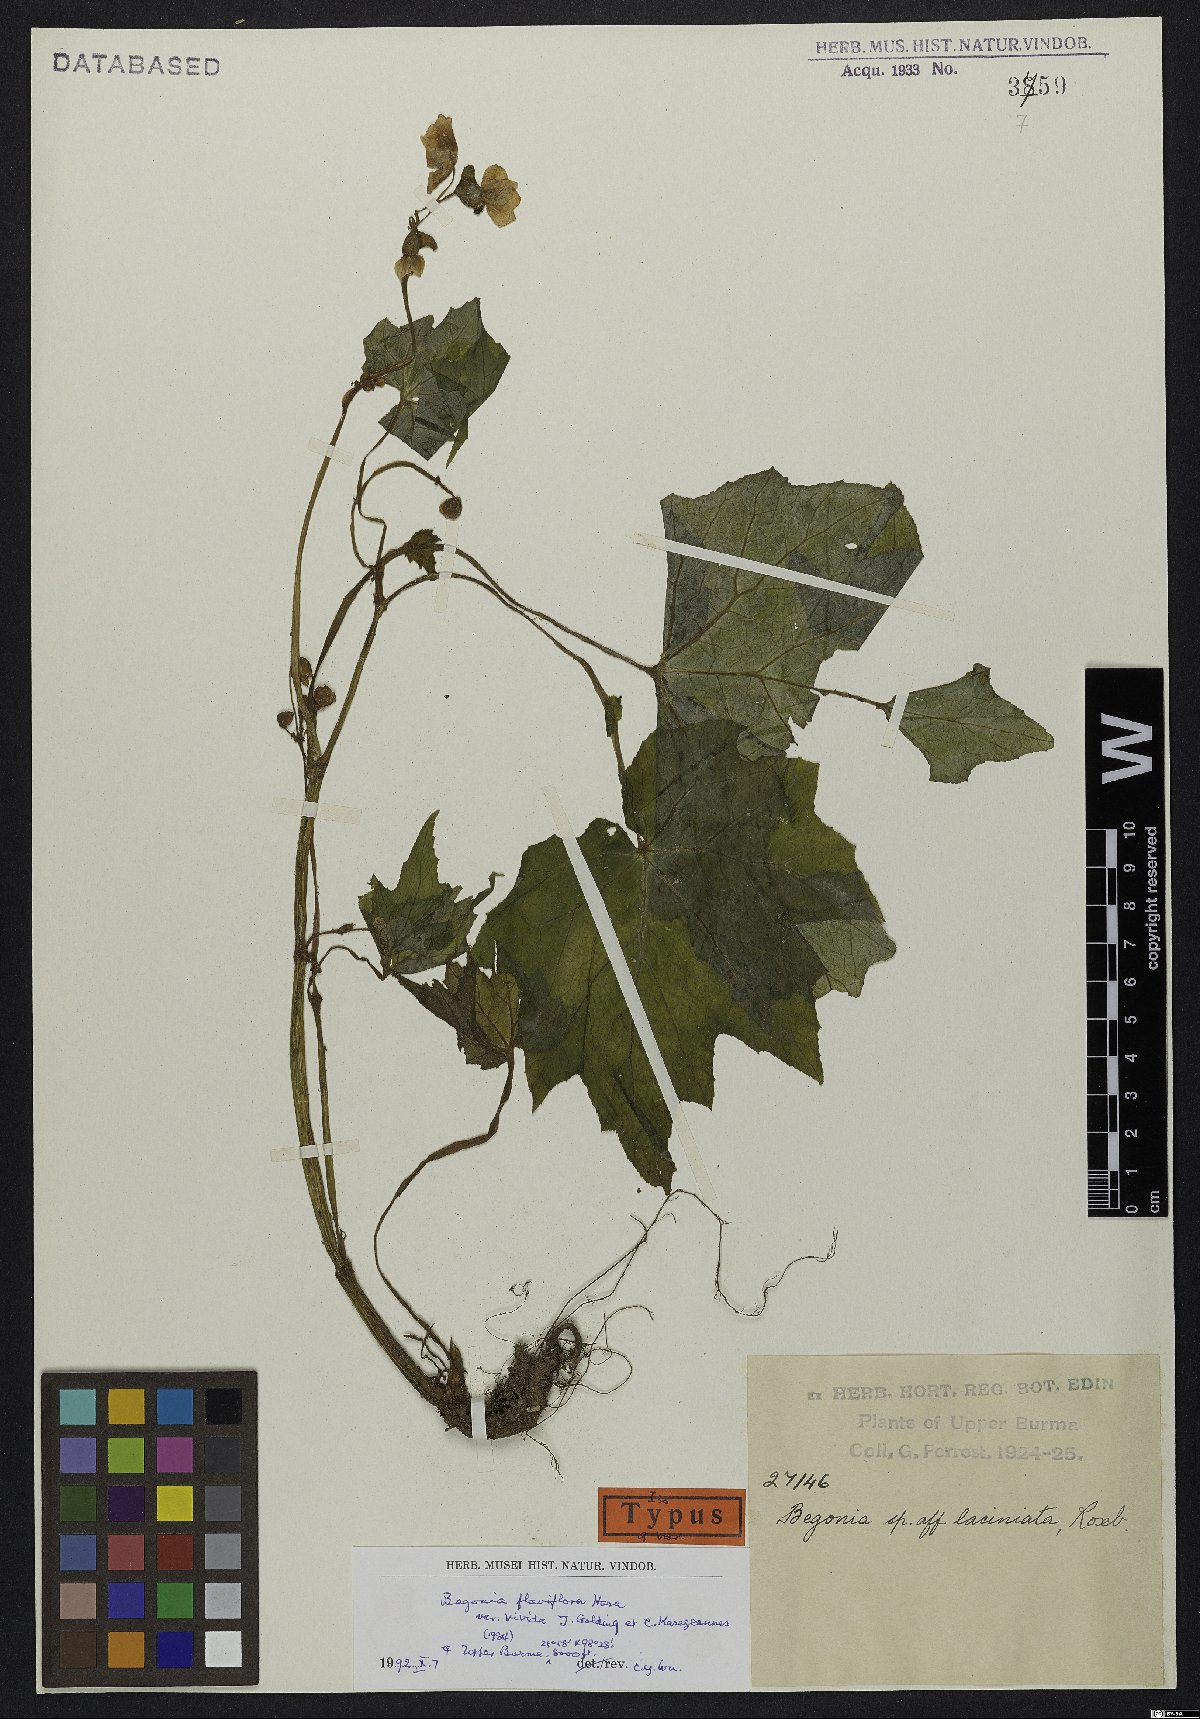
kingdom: Plantae
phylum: Tracheophyta
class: Magnoliopsida
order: Cucurbitales
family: Begoniaceae
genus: Begonia
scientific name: Begonia flaviflora
